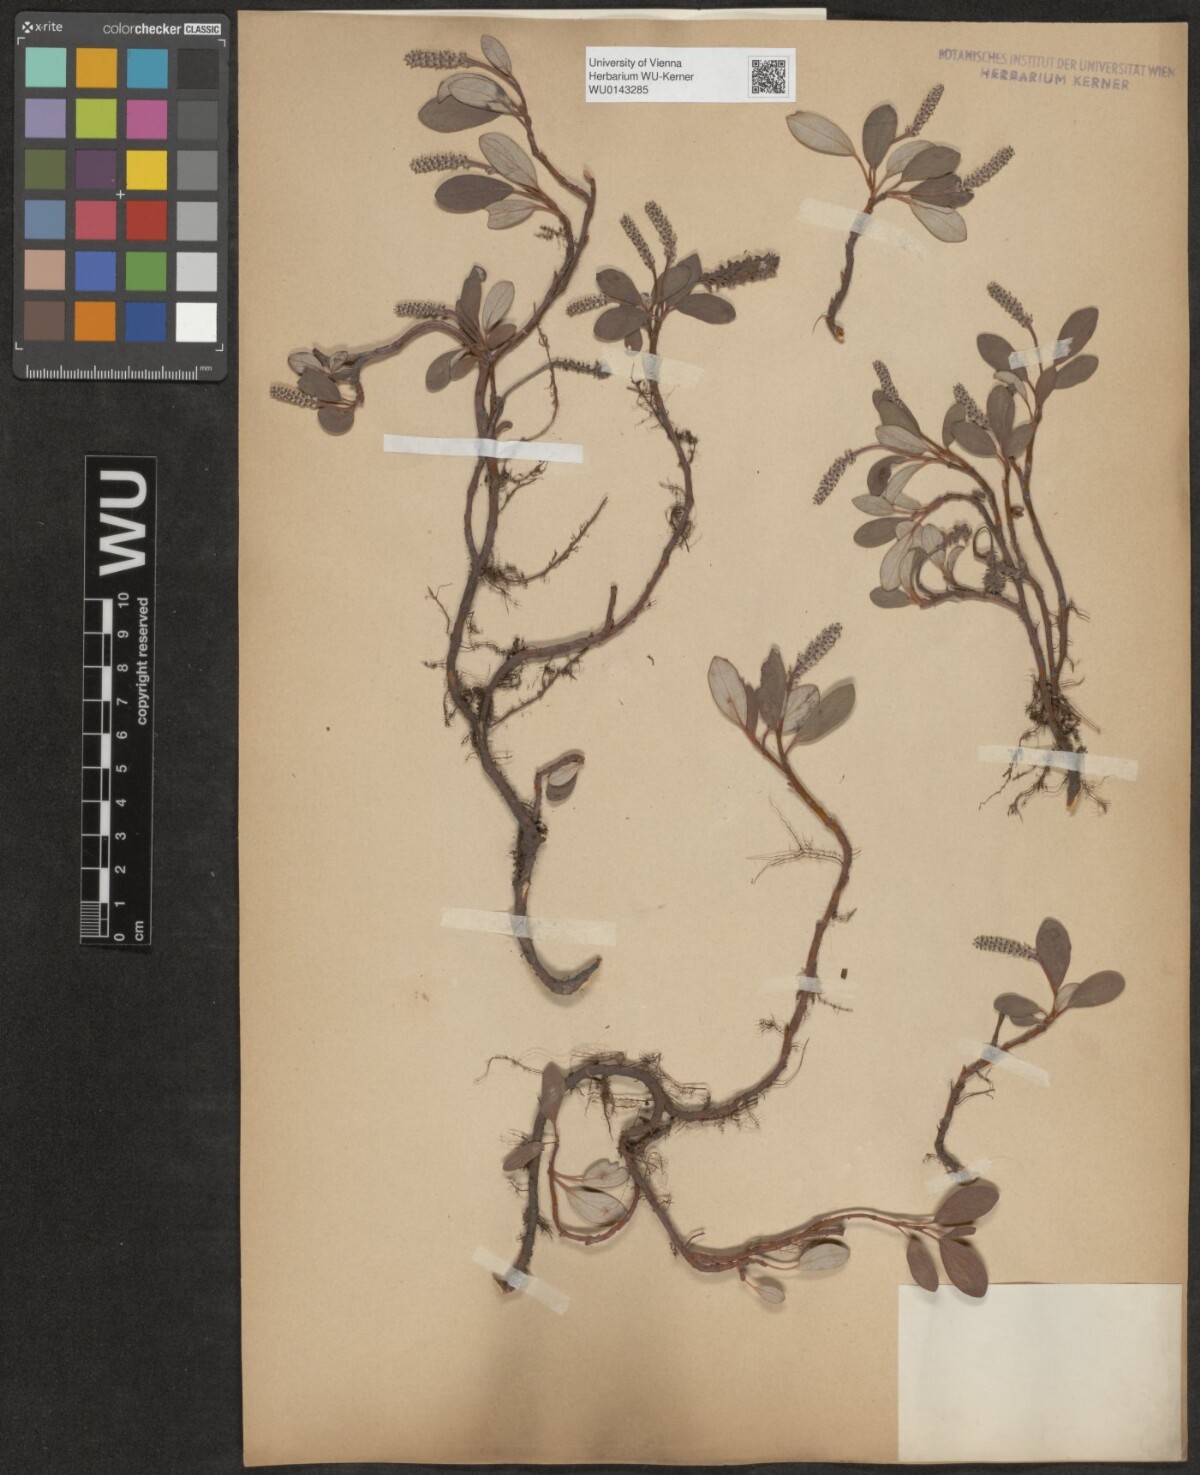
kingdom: Plantae
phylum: Tracheophyta
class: Magnoliopsida
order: Malpighiales
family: Salicaceae
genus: Salix
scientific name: Salix reticulata
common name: Net-leaved willow
